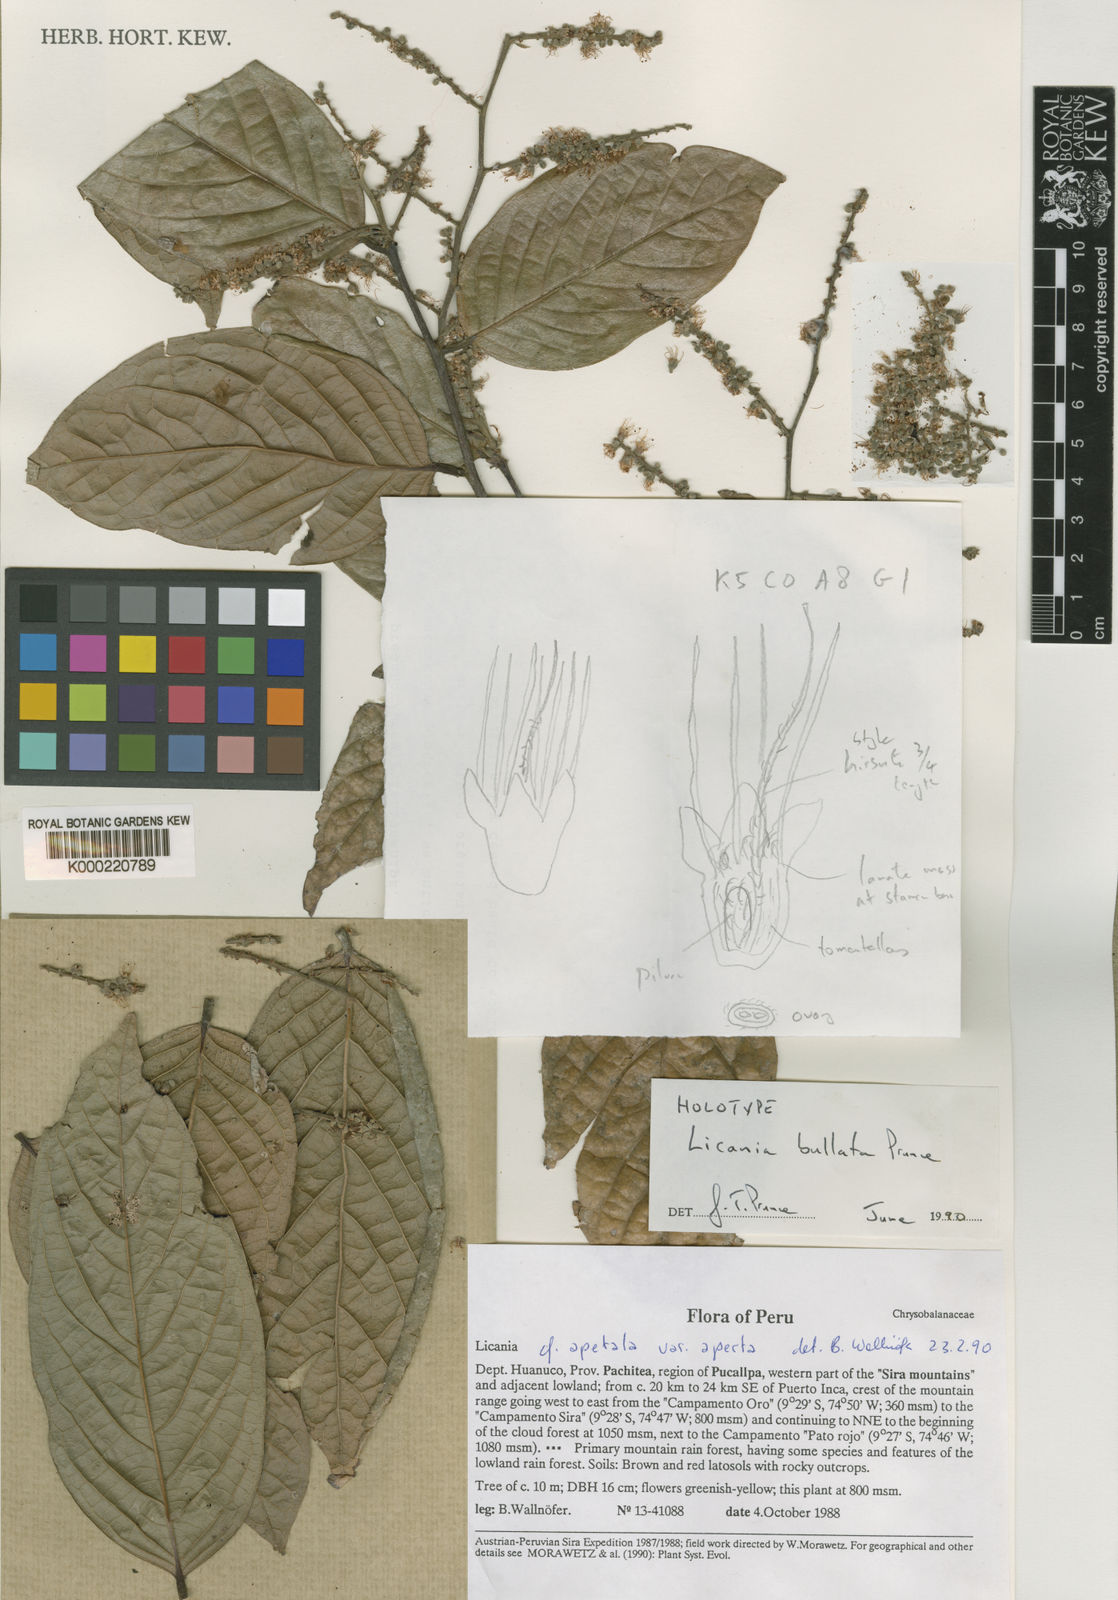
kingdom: Plantae
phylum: Tracheophyta
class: Magnoliopsida
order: Malpighiales
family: Chrysobalanaceae
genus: Leptobalanus
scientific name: Leptobalanus bullatus
